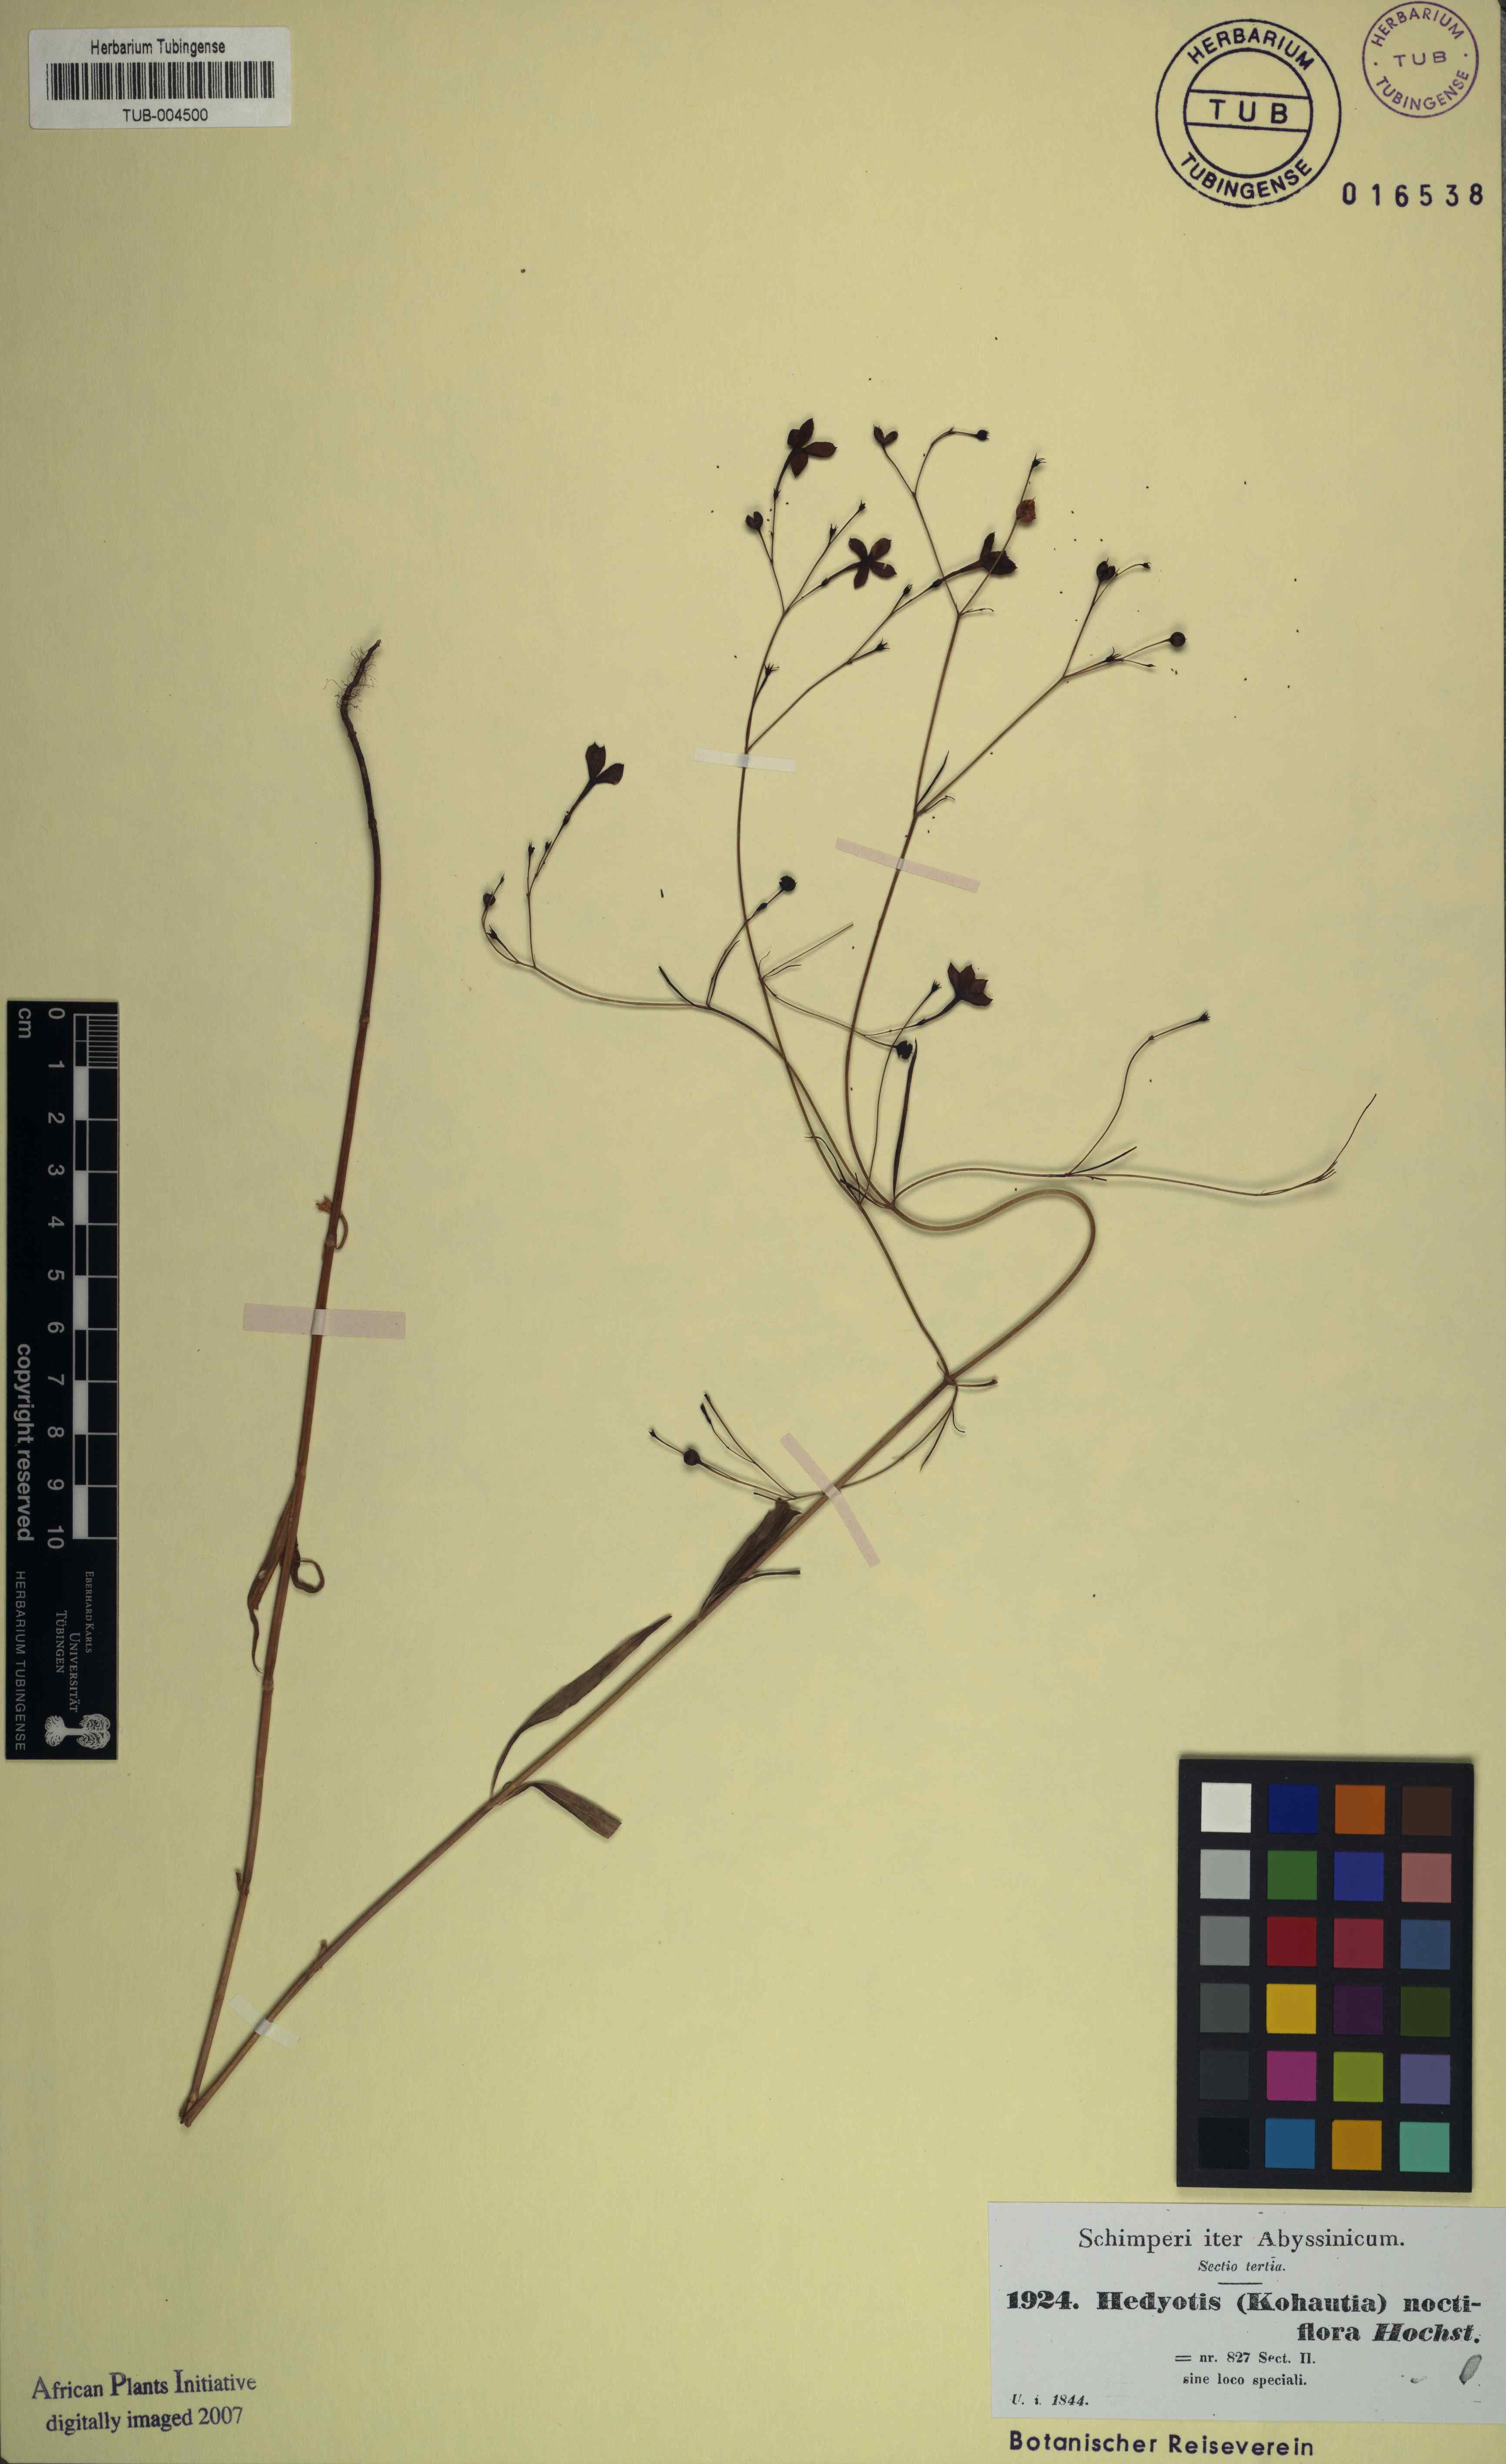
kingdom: Plantae
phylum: Tracheophyta
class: Magnoliopsida
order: Gentianales
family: Rubiaceae
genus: Kohautia
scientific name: Kohautia tenuis
